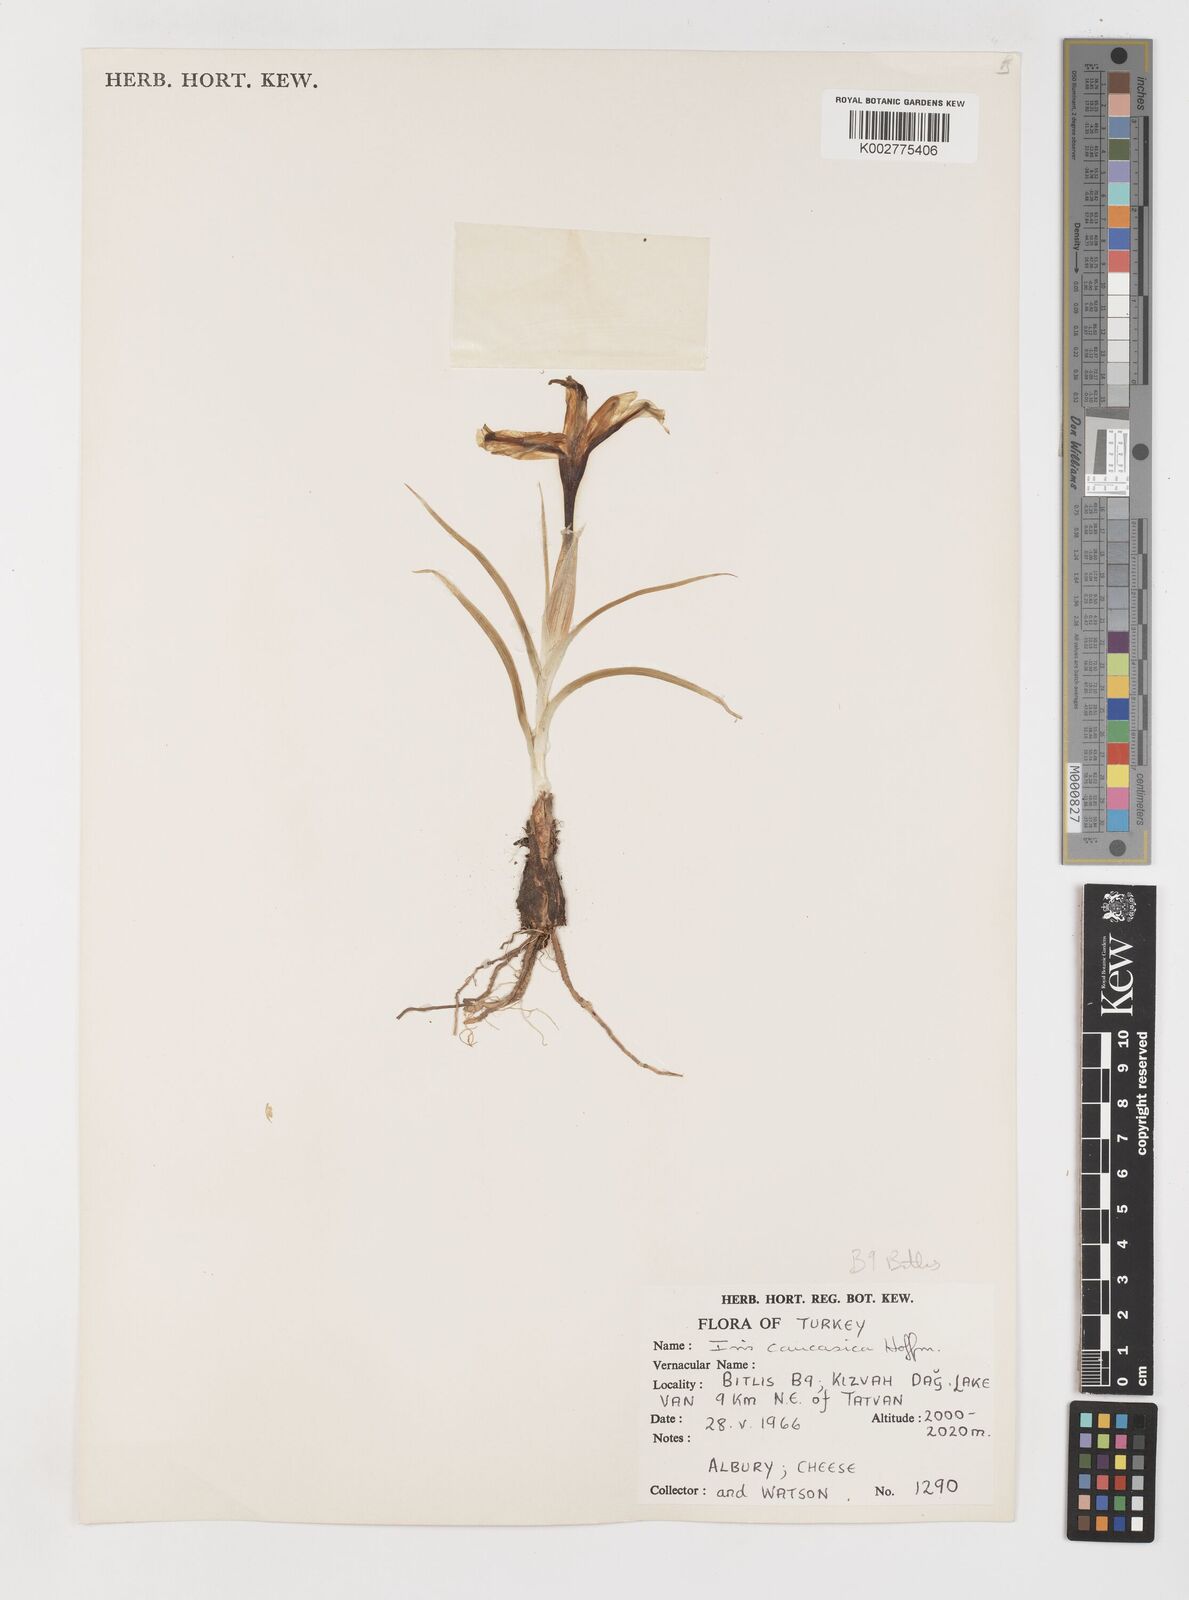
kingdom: Plantae
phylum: Tracheophyta
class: Liliopsida
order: Asparagales
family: Iridaceae
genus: Iris
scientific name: Iris caucasica
